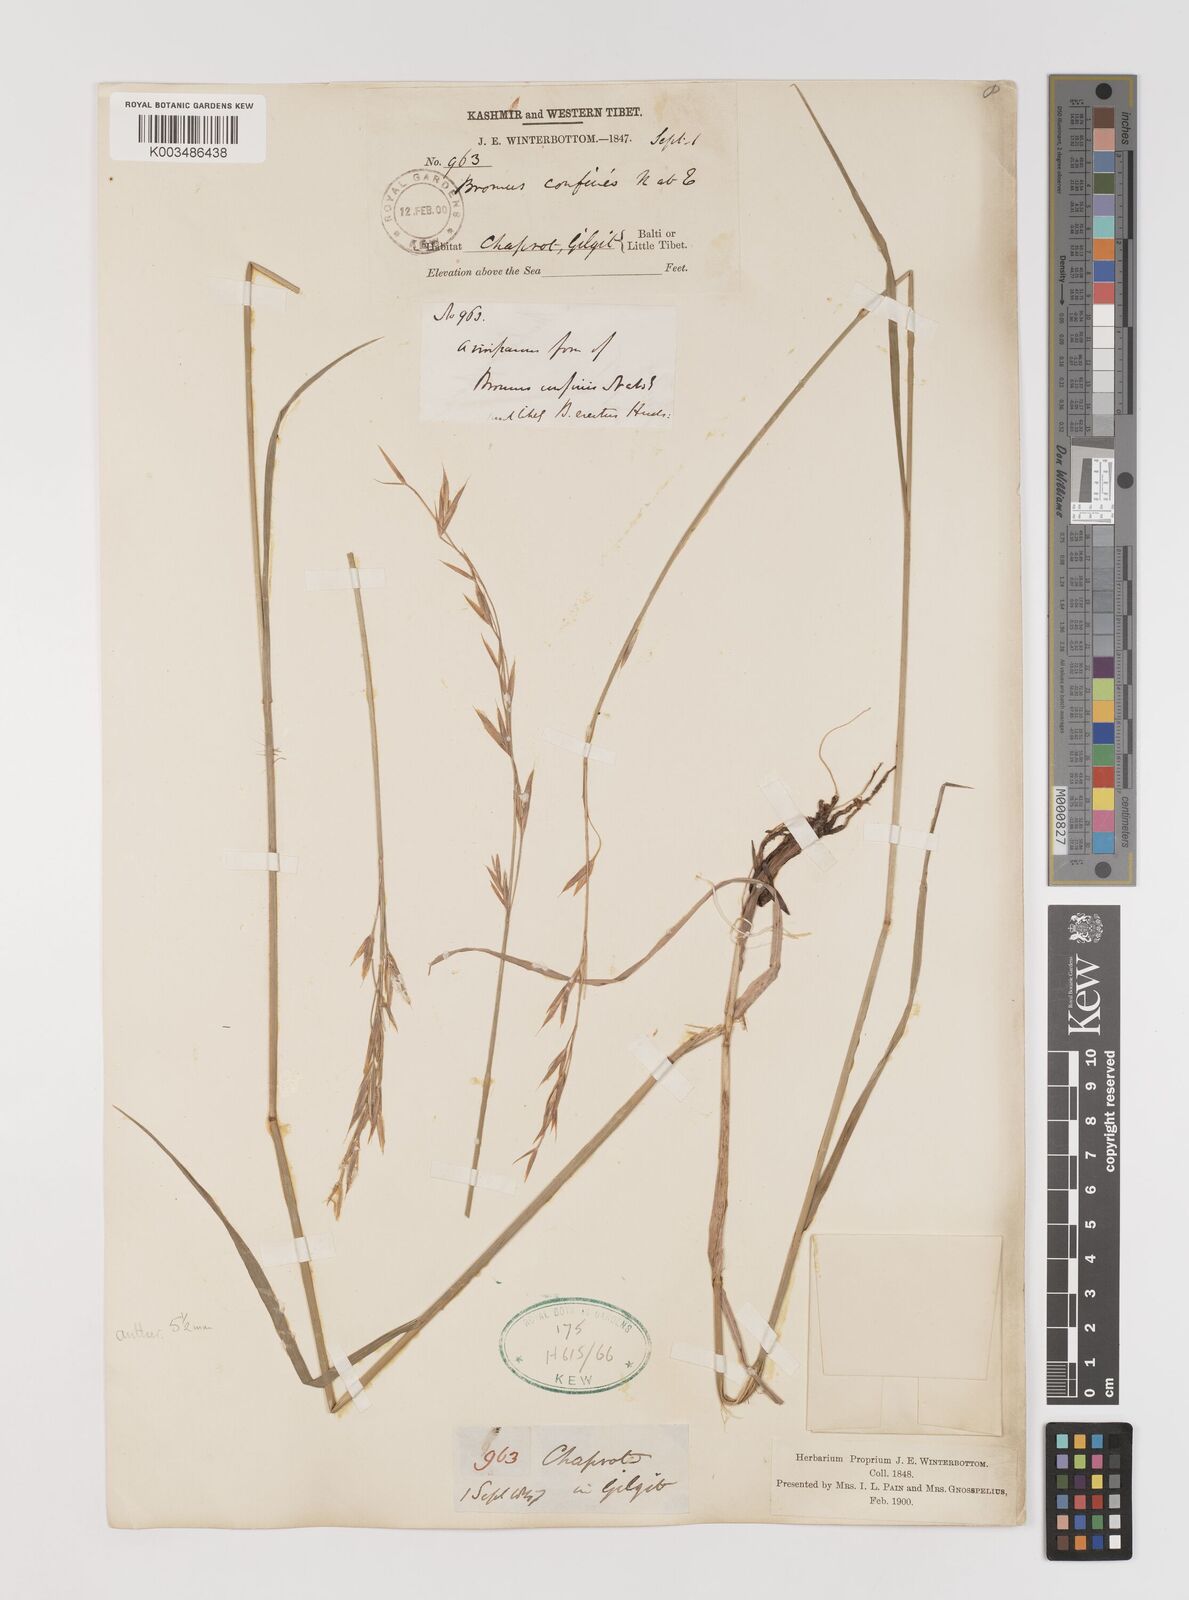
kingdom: Plantae
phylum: Tracheophyta
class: Liliopsida
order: Poales
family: Poaceae
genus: Bromus
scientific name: Bromus confinis
